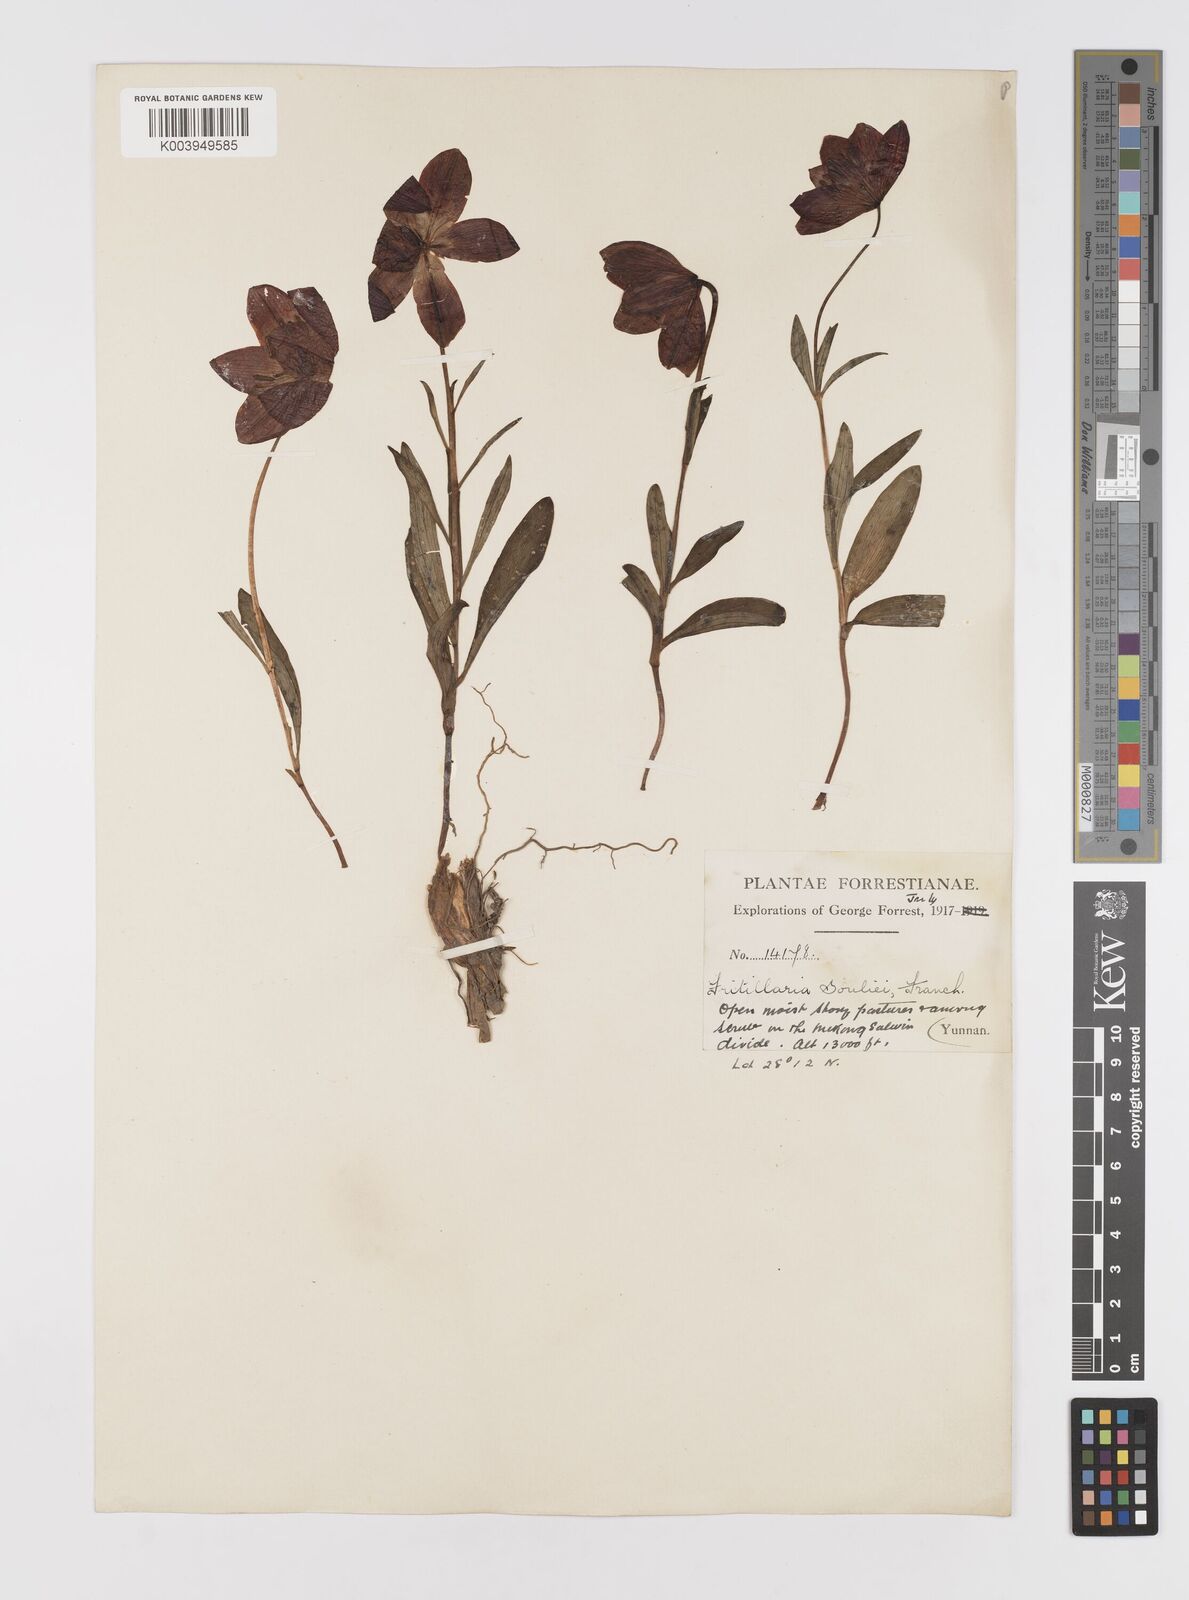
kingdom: Plantae
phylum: Tracheophyta
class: Liliopsida
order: Liliales
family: Liliaceae
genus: Lilium
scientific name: Lilium souliei
